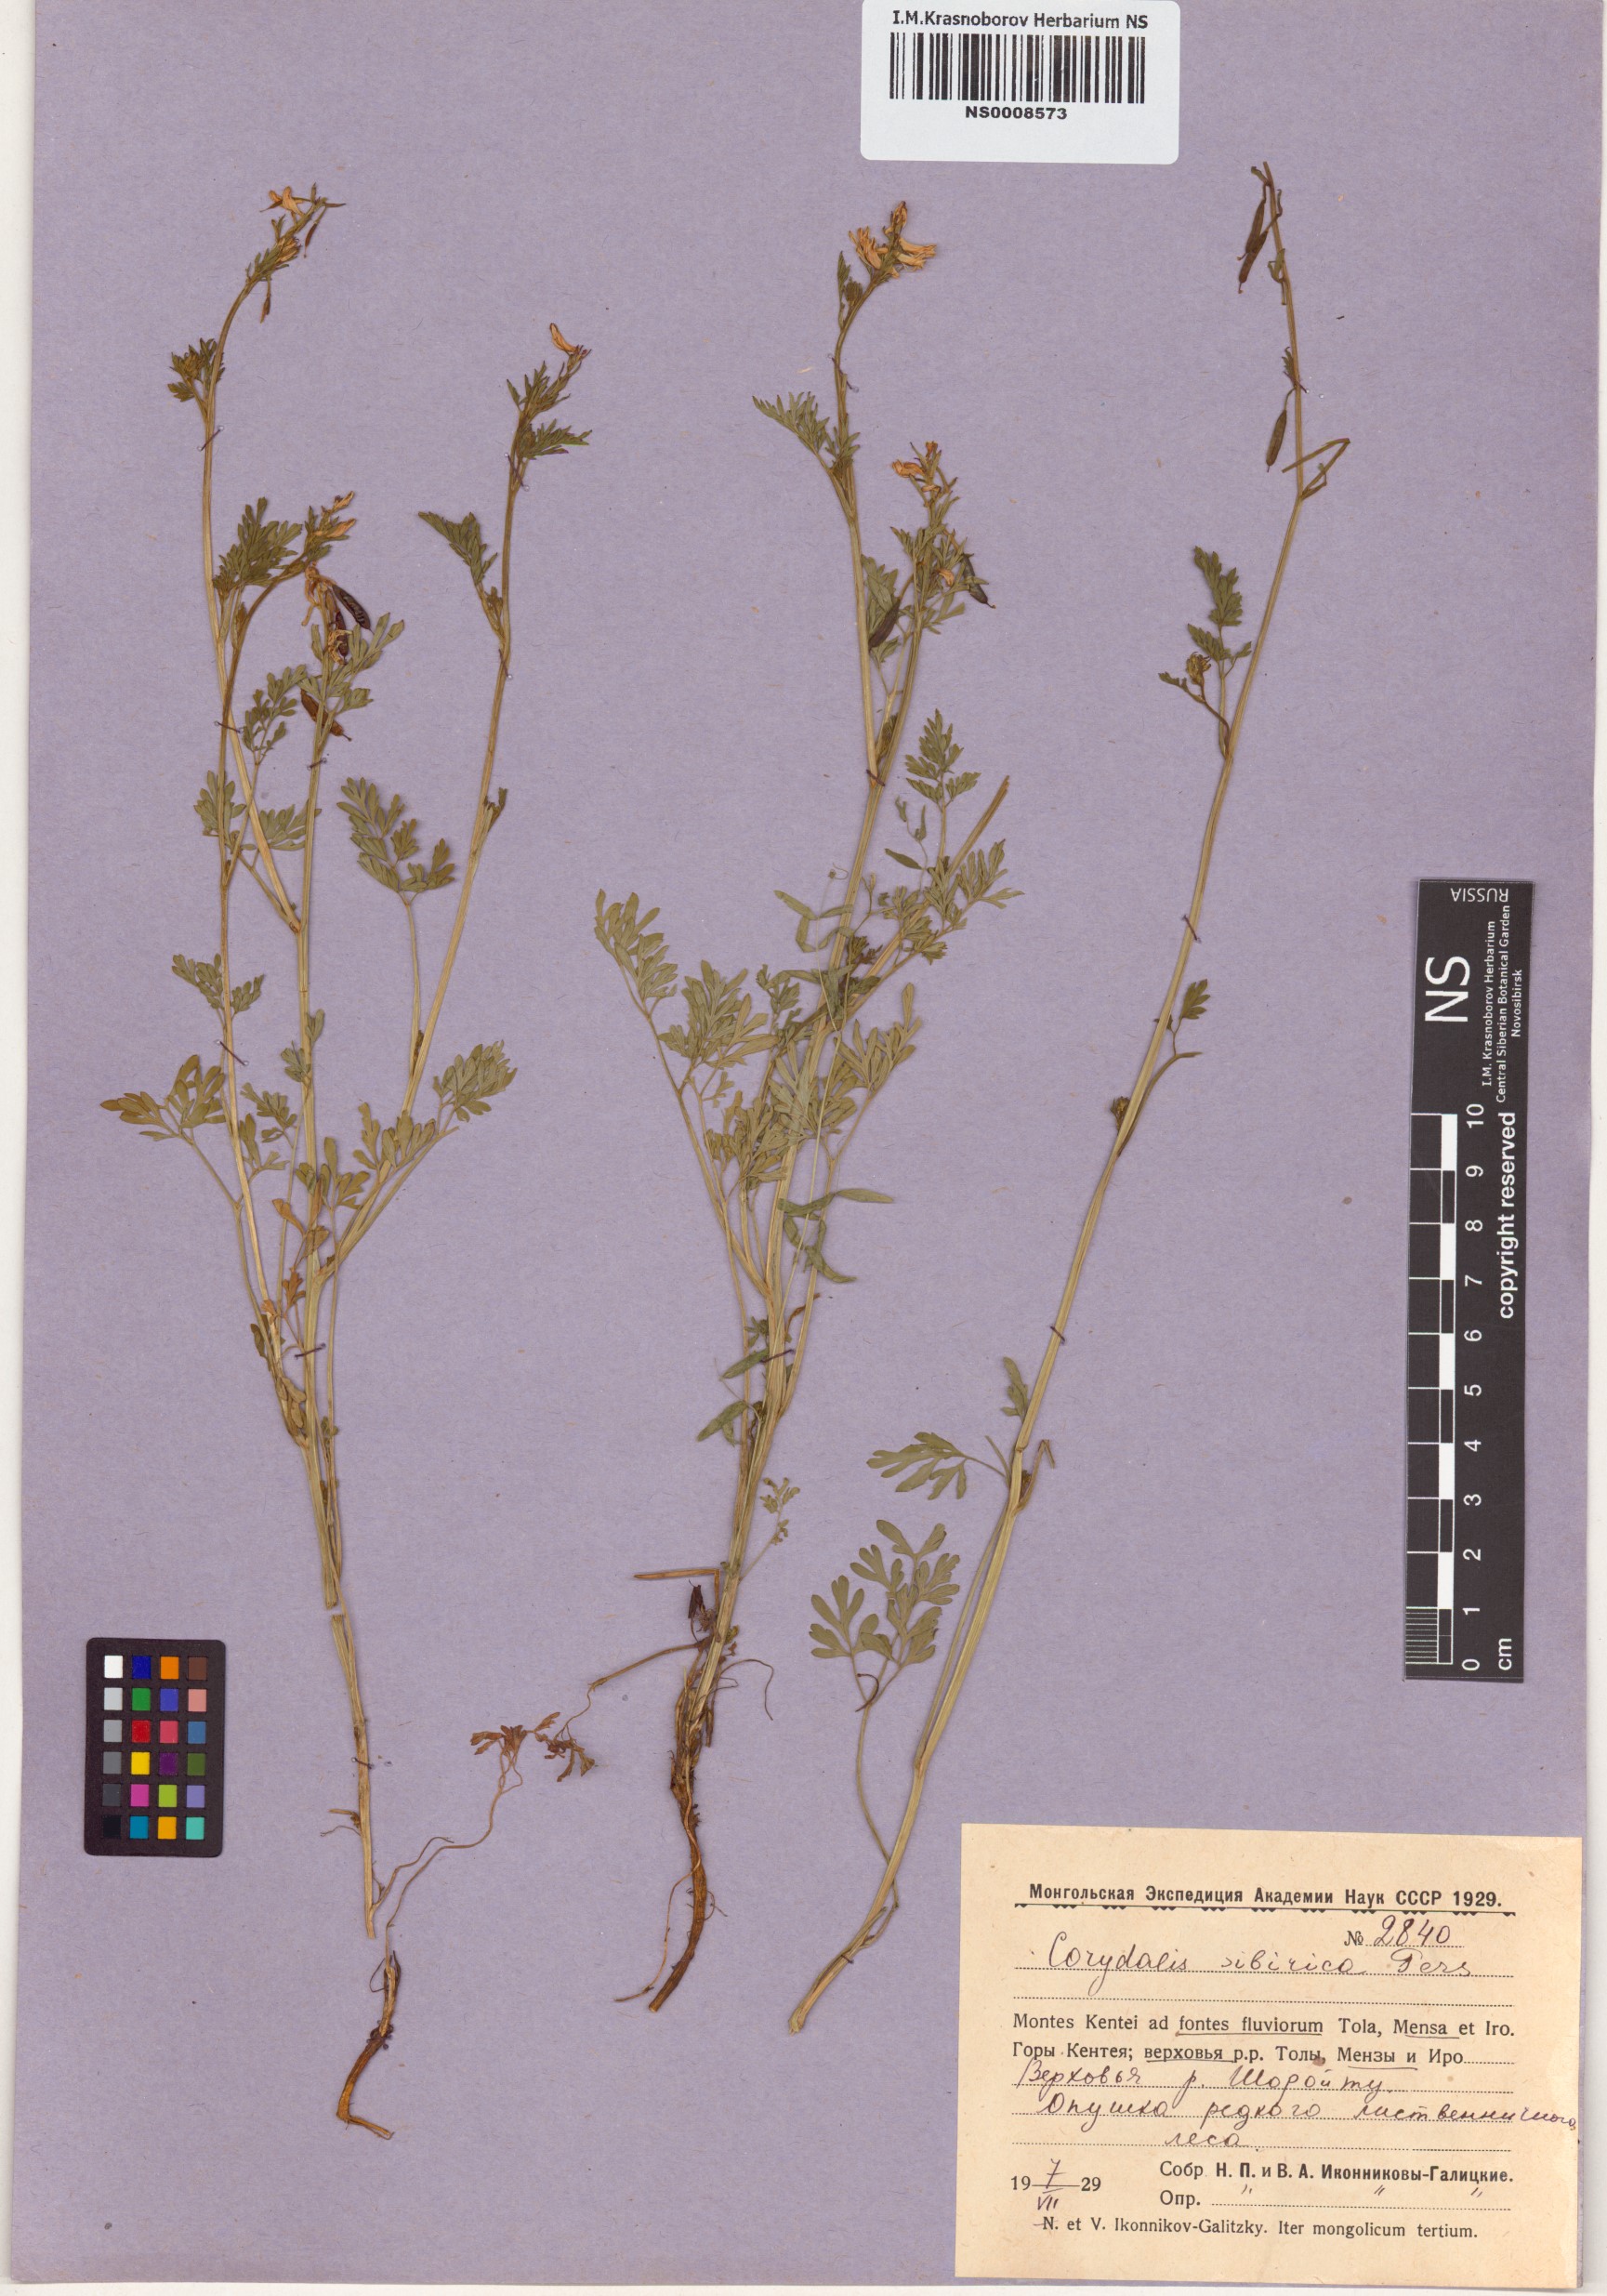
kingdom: Plantae
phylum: Tracheophyta
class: Magnoliopsida
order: Ranunculales
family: Papaveraceae
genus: Corydalis
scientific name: Corydalis sibirica
